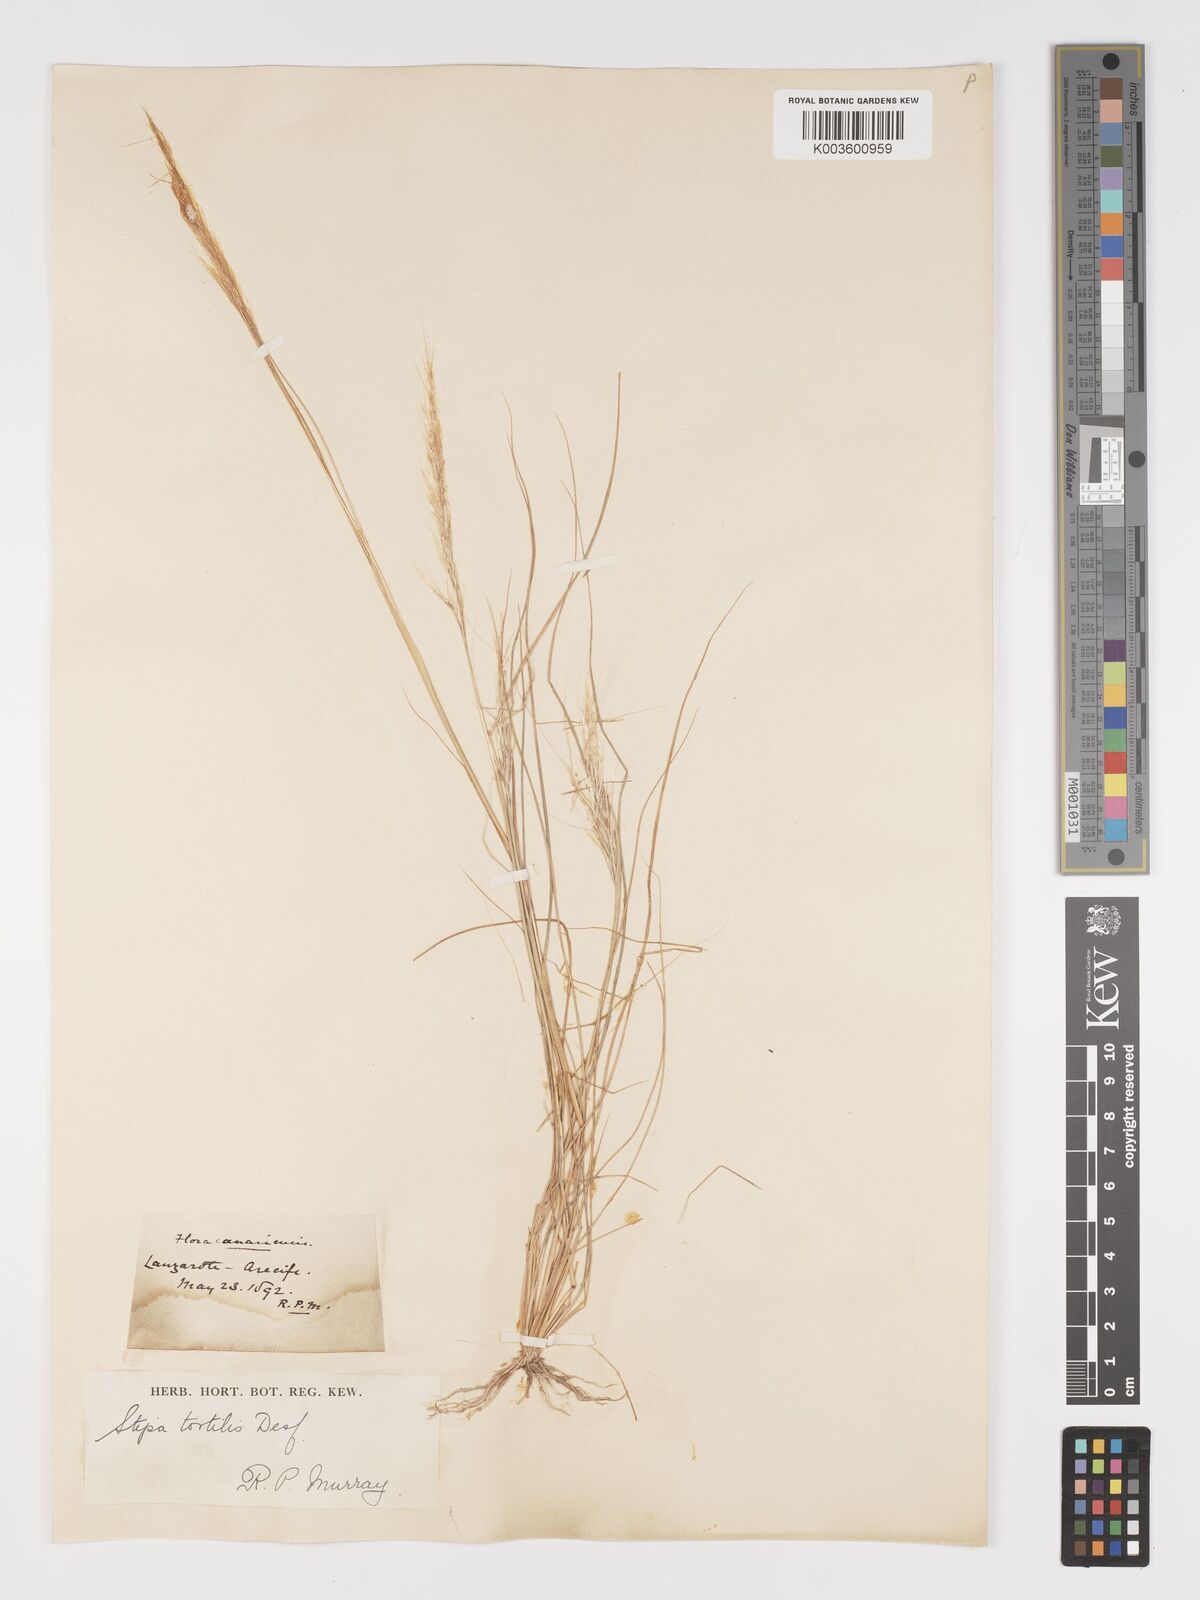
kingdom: Plantae
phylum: Tracheophyta
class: Liliopsida
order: Poales
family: Poaceae
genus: Stipellula
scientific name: Stipellula capensis
